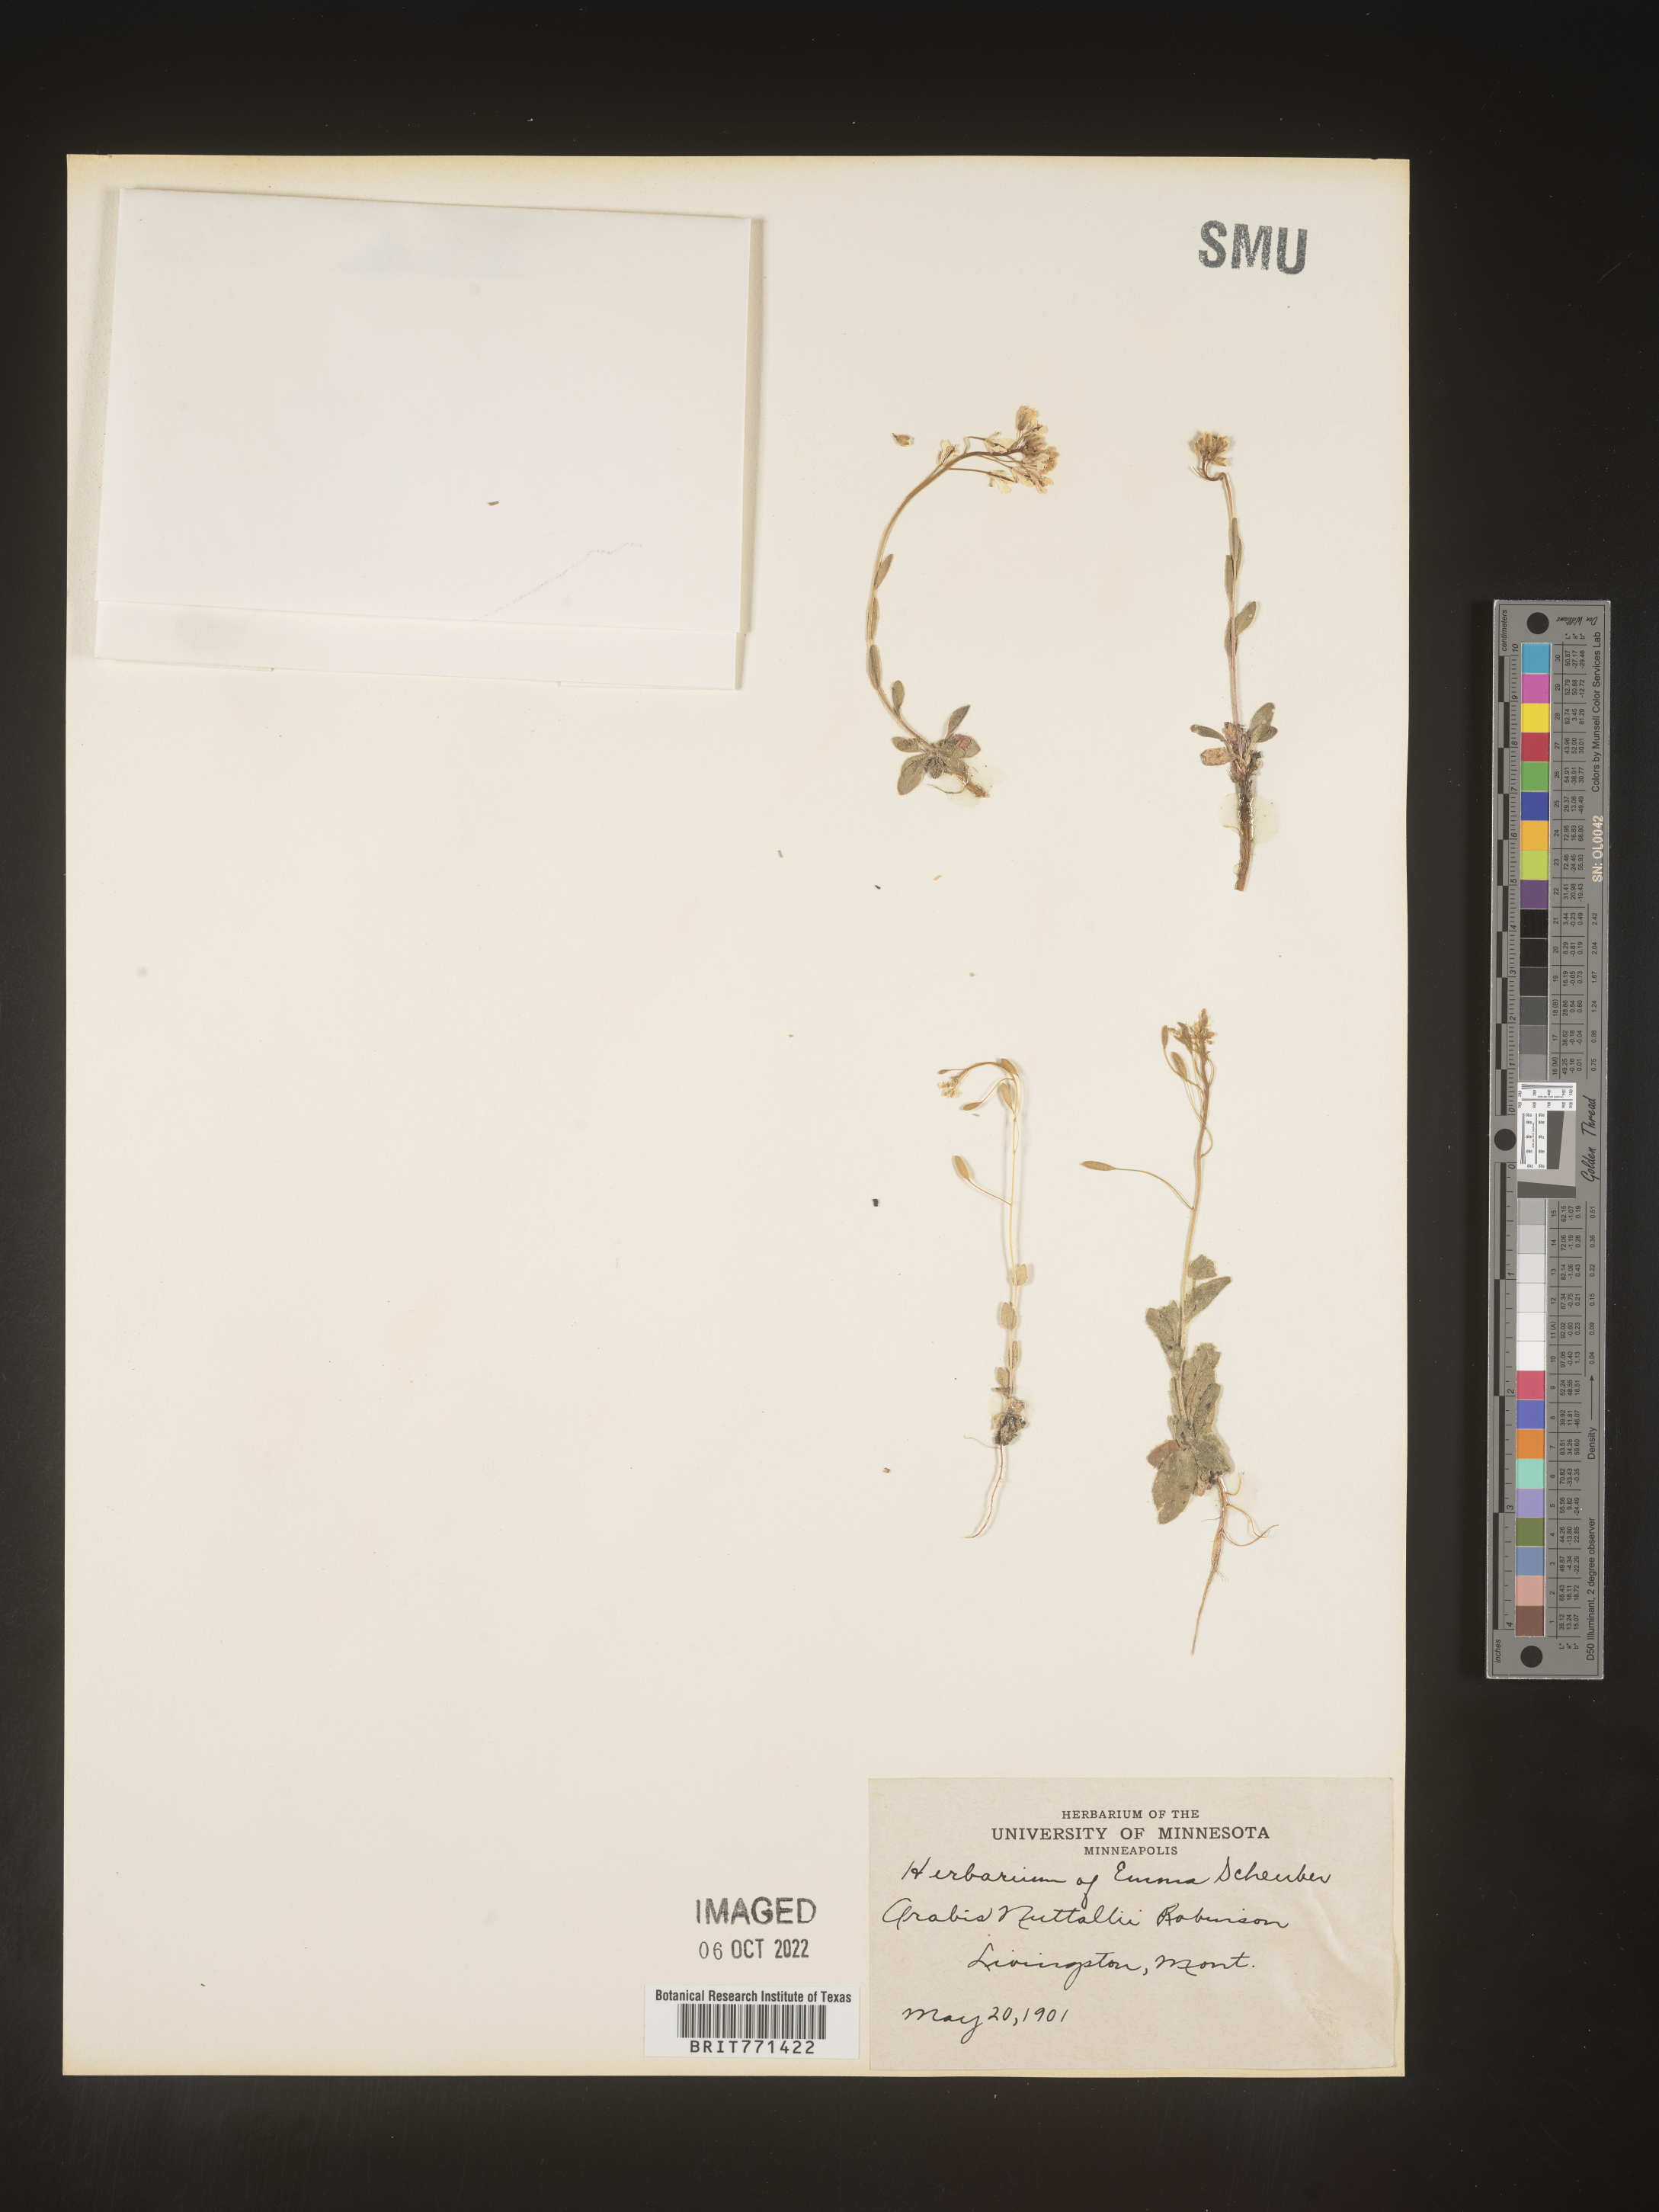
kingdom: Plantae
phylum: Tracheophyta
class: Magnoliopsida
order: Brassicales
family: Brassicaceae
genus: Arabis
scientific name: Arabis
